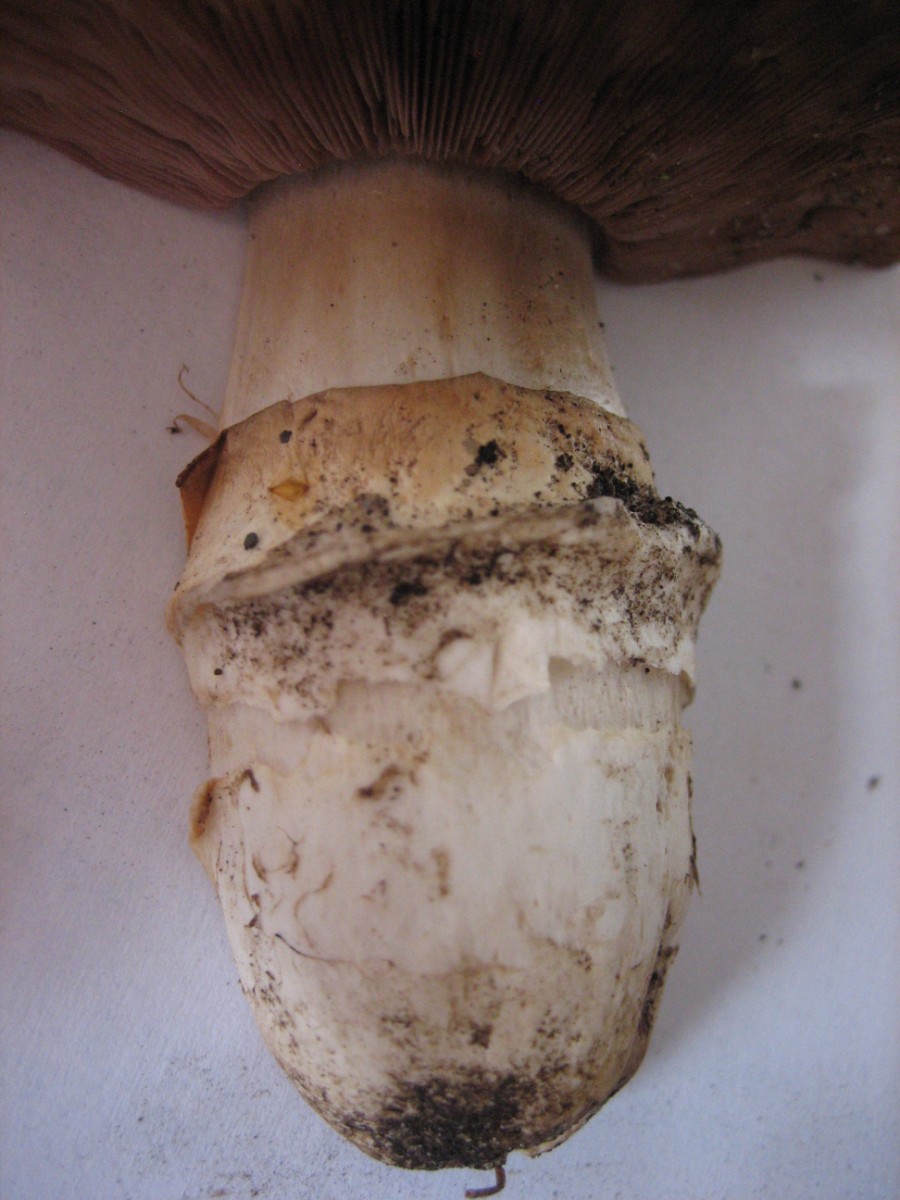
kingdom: Fungi
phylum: Basidiomycota
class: Agaricomycetes
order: Agaricales
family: Agaricaceae
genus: Agaricus
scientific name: Agaricus bitorquis
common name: vej-champignon
